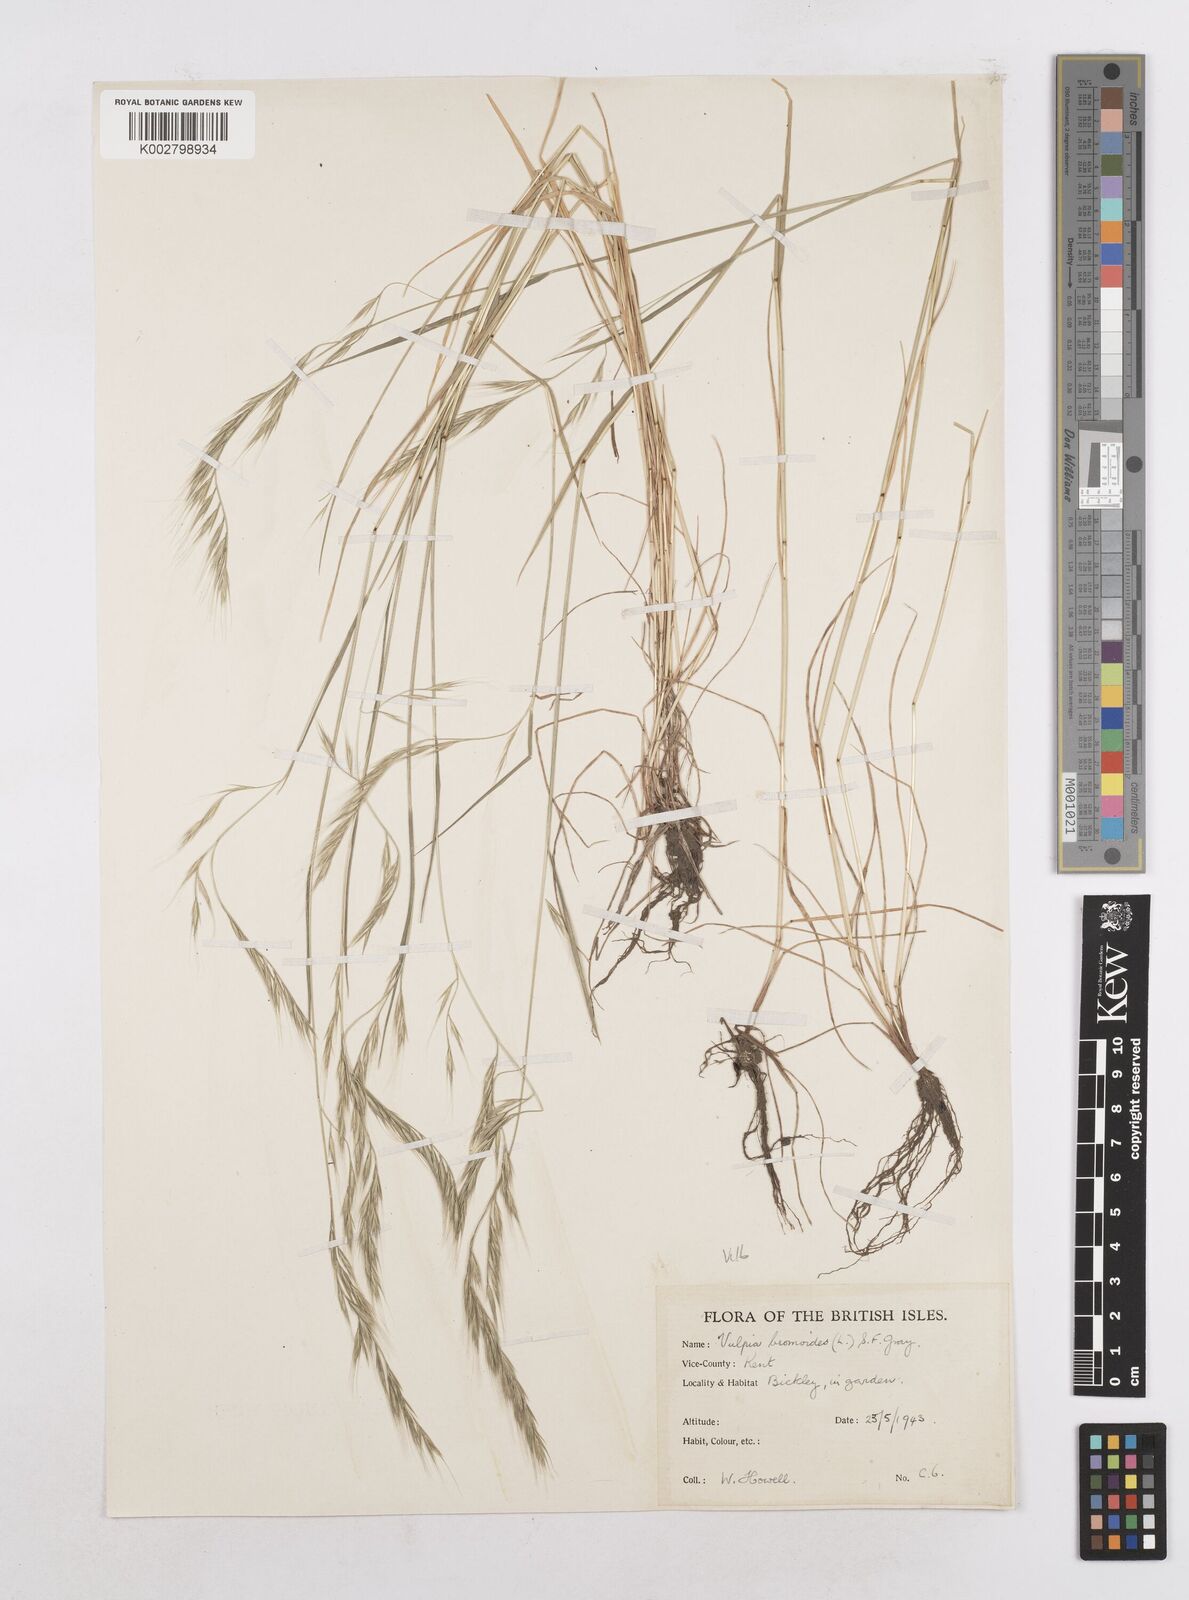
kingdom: Plantae
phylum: Tracheophyta
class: Liliopsida
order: Poales
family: Poaceae
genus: Festuca
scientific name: Festuca bromoides
